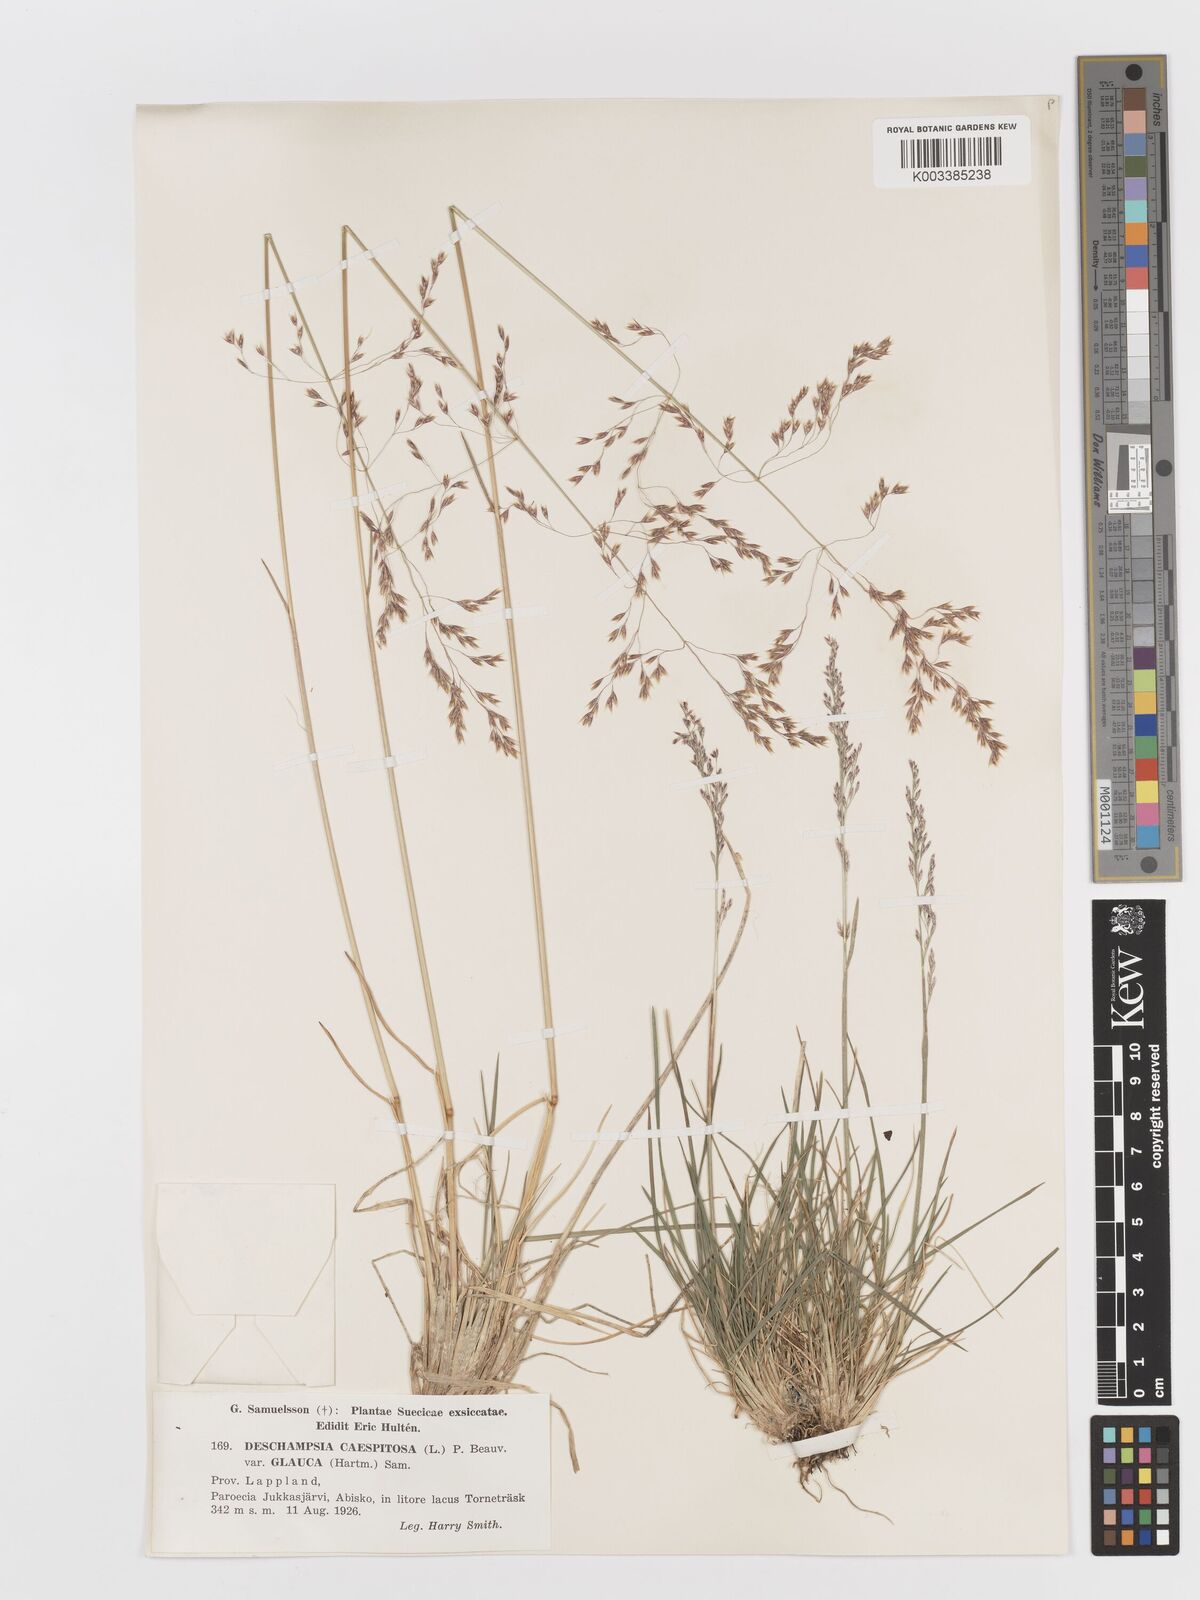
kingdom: Plantae
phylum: Tracheophyta
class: Liliopsida
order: Poales
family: Poaceae
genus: Deschampsia
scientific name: Deschampsia cespitosa
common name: Tufted hair-grass
